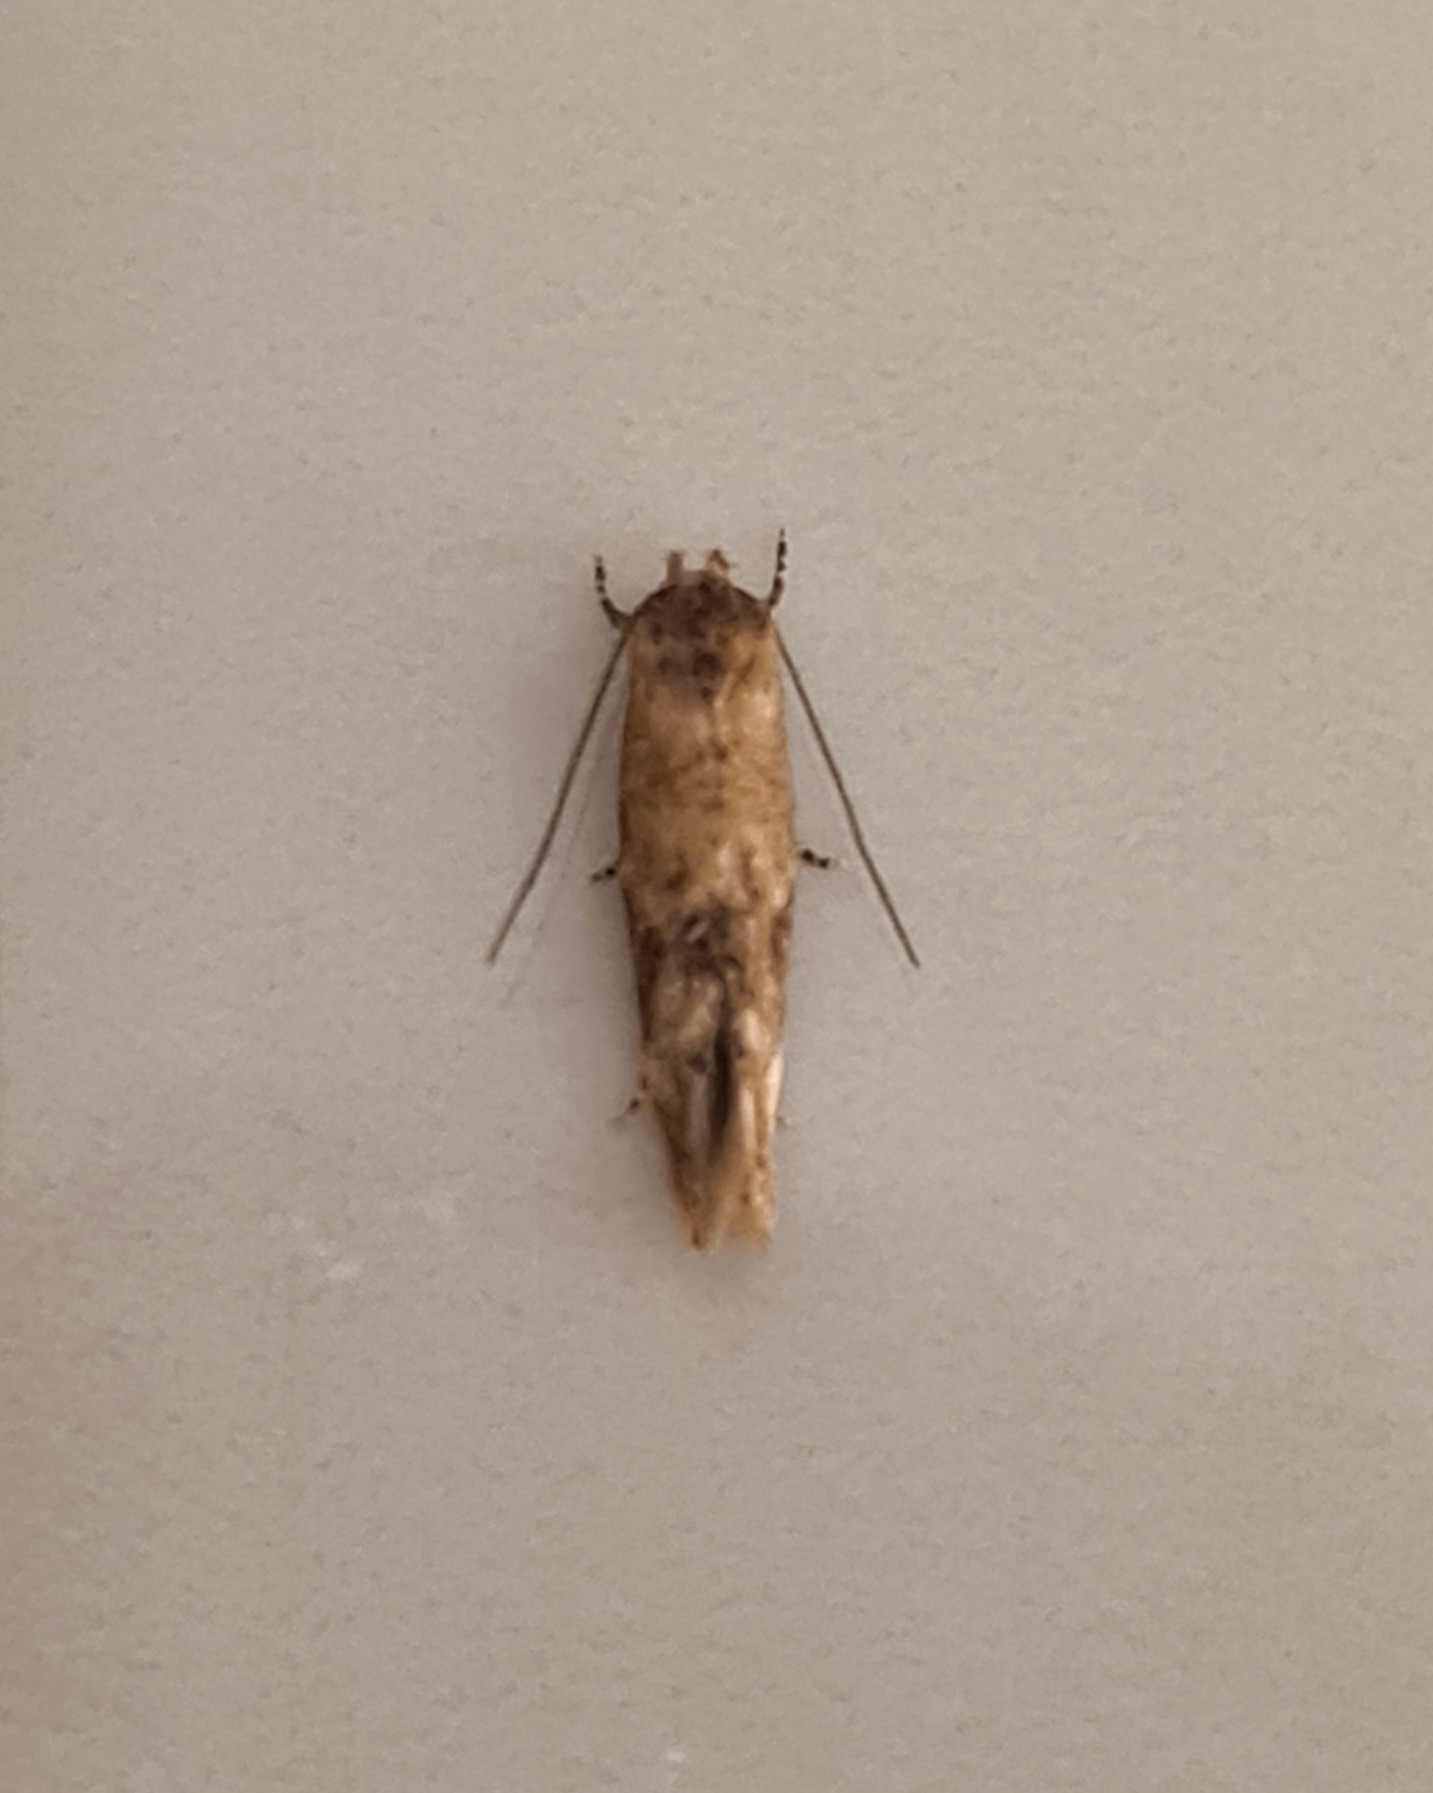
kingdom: Animalia
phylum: Arthropoda
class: Insecta
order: Lepidoptera
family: Momphidae
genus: Mompha
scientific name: Mompha langiella
